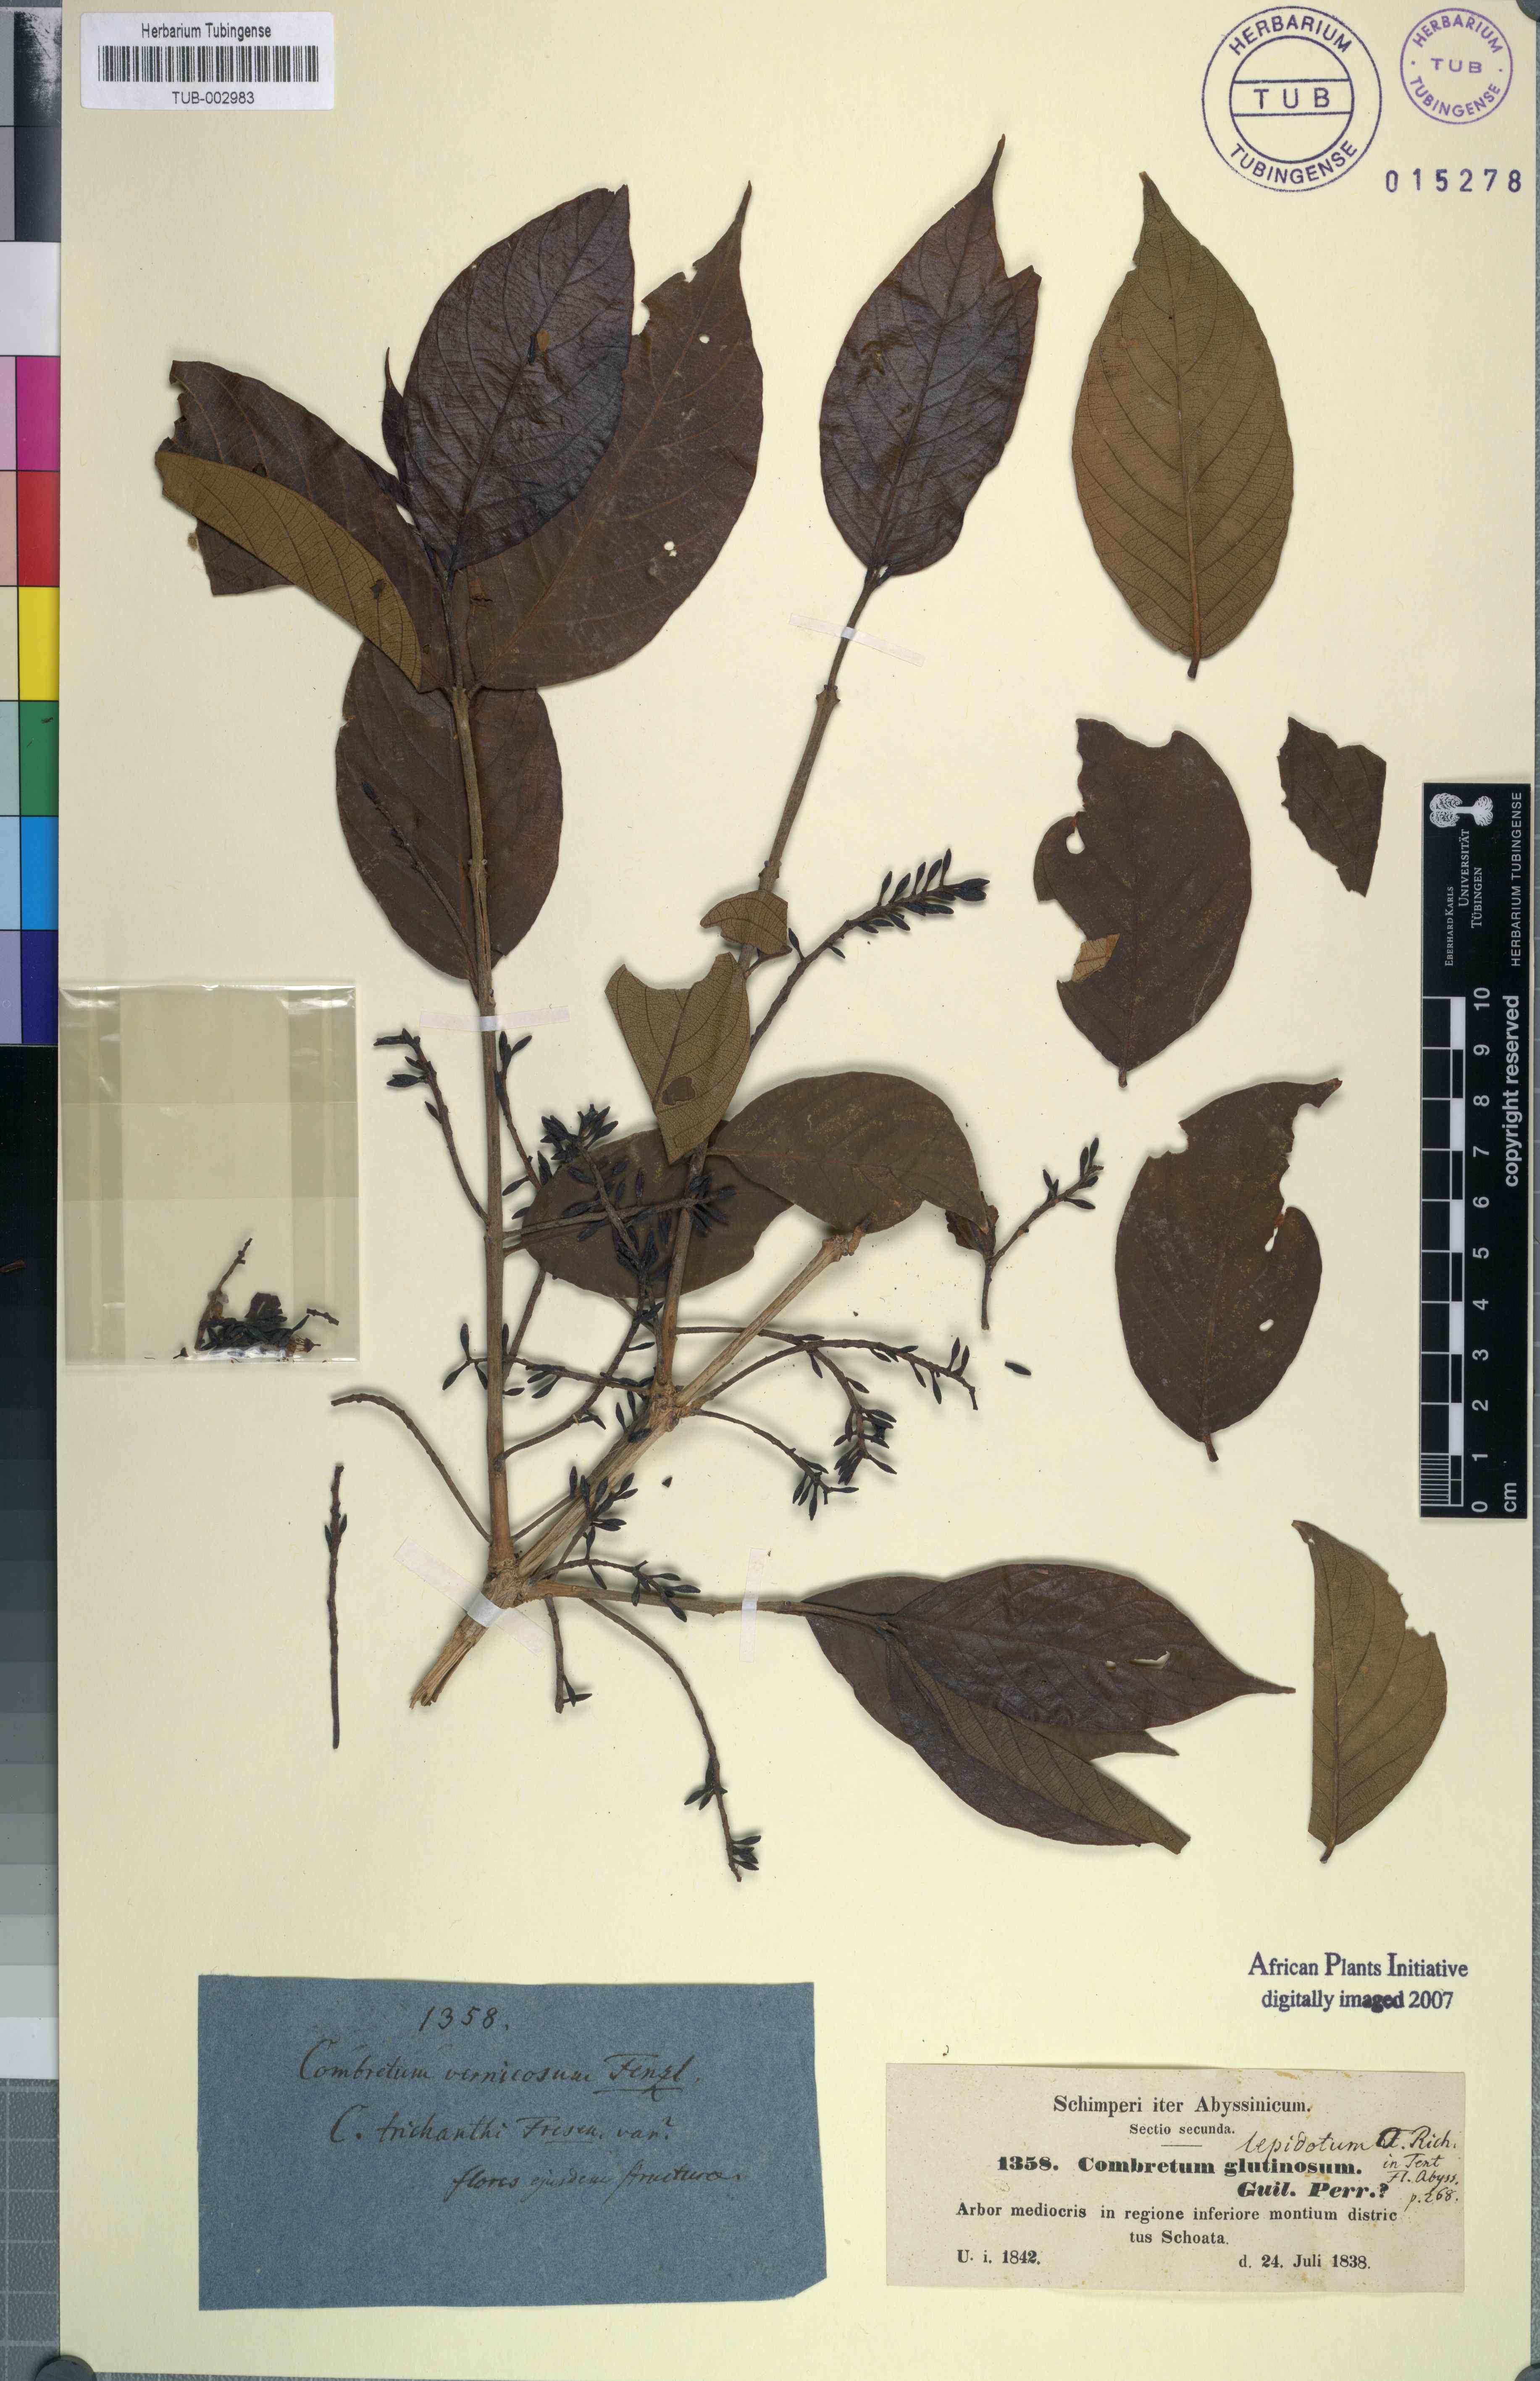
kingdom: Plantae
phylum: Tracheophyta
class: Magnoliopsida
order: Myrtales
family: Combretaceae
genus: Combretum
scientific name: Combretum molle
